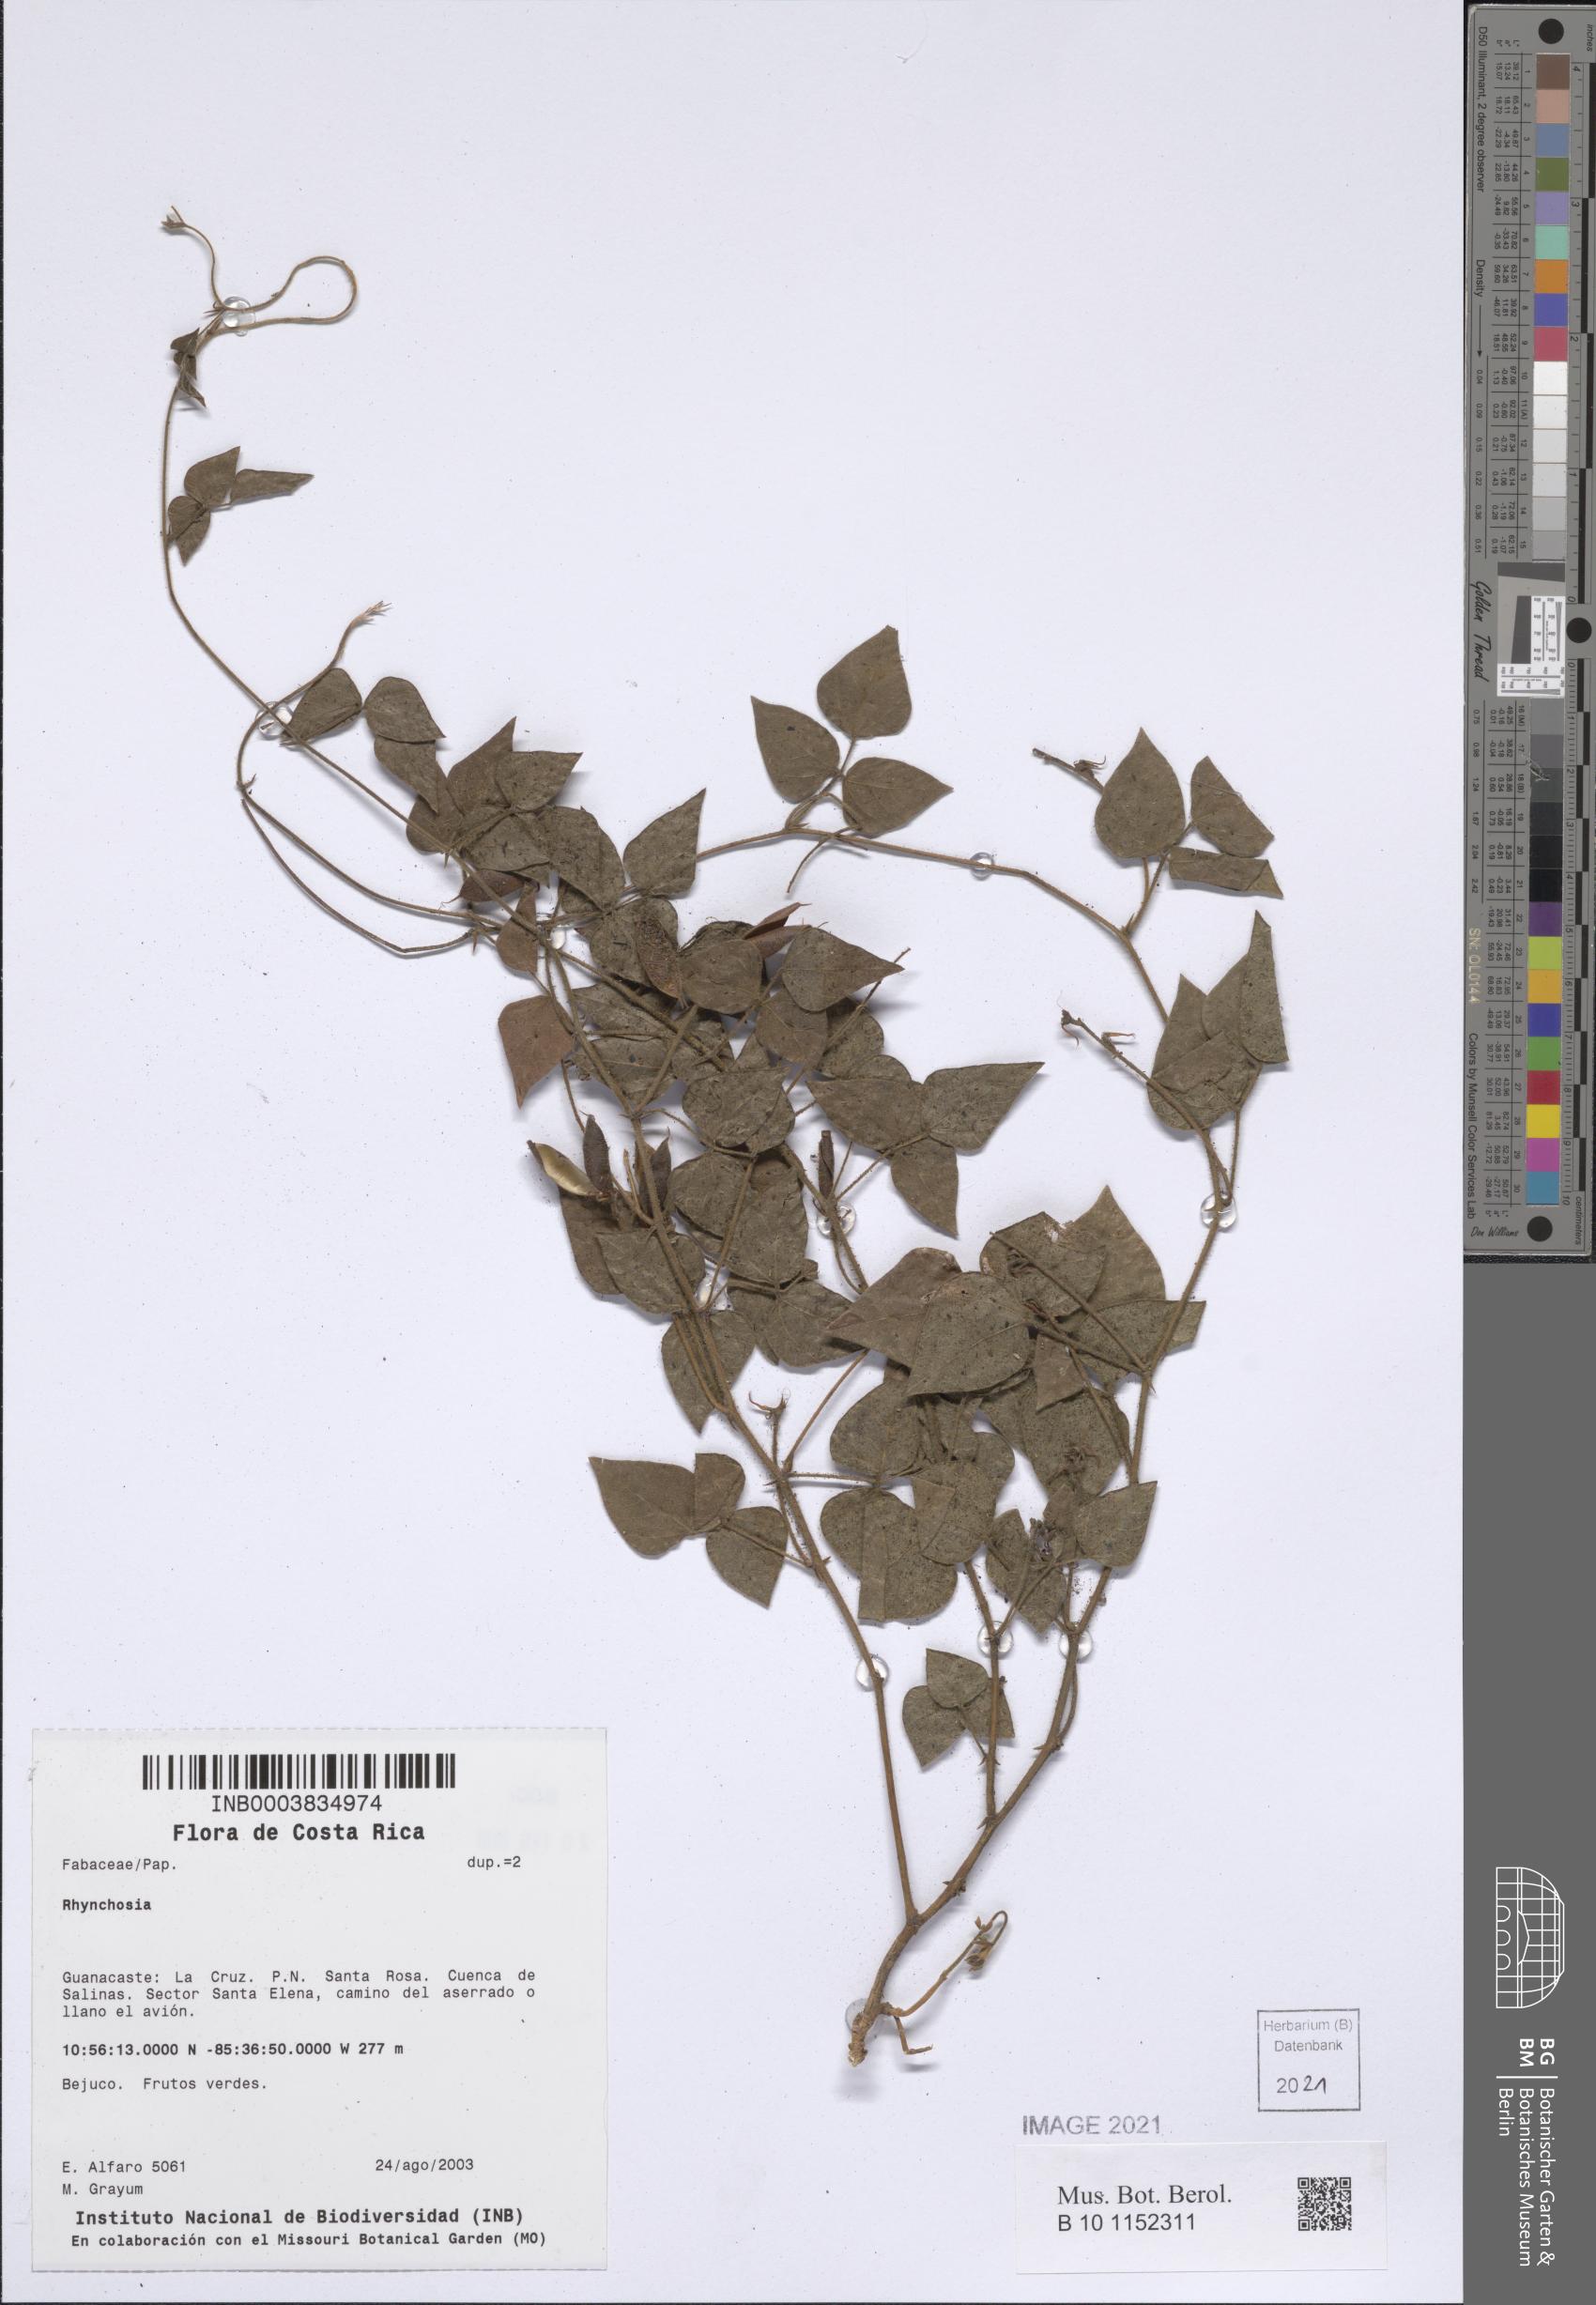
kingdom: Plantae
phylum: Tracheophyta
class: Magnoliopsida
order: Fabales
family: Fabaceae
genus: Rhynchosia
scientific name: Rhynchosia
